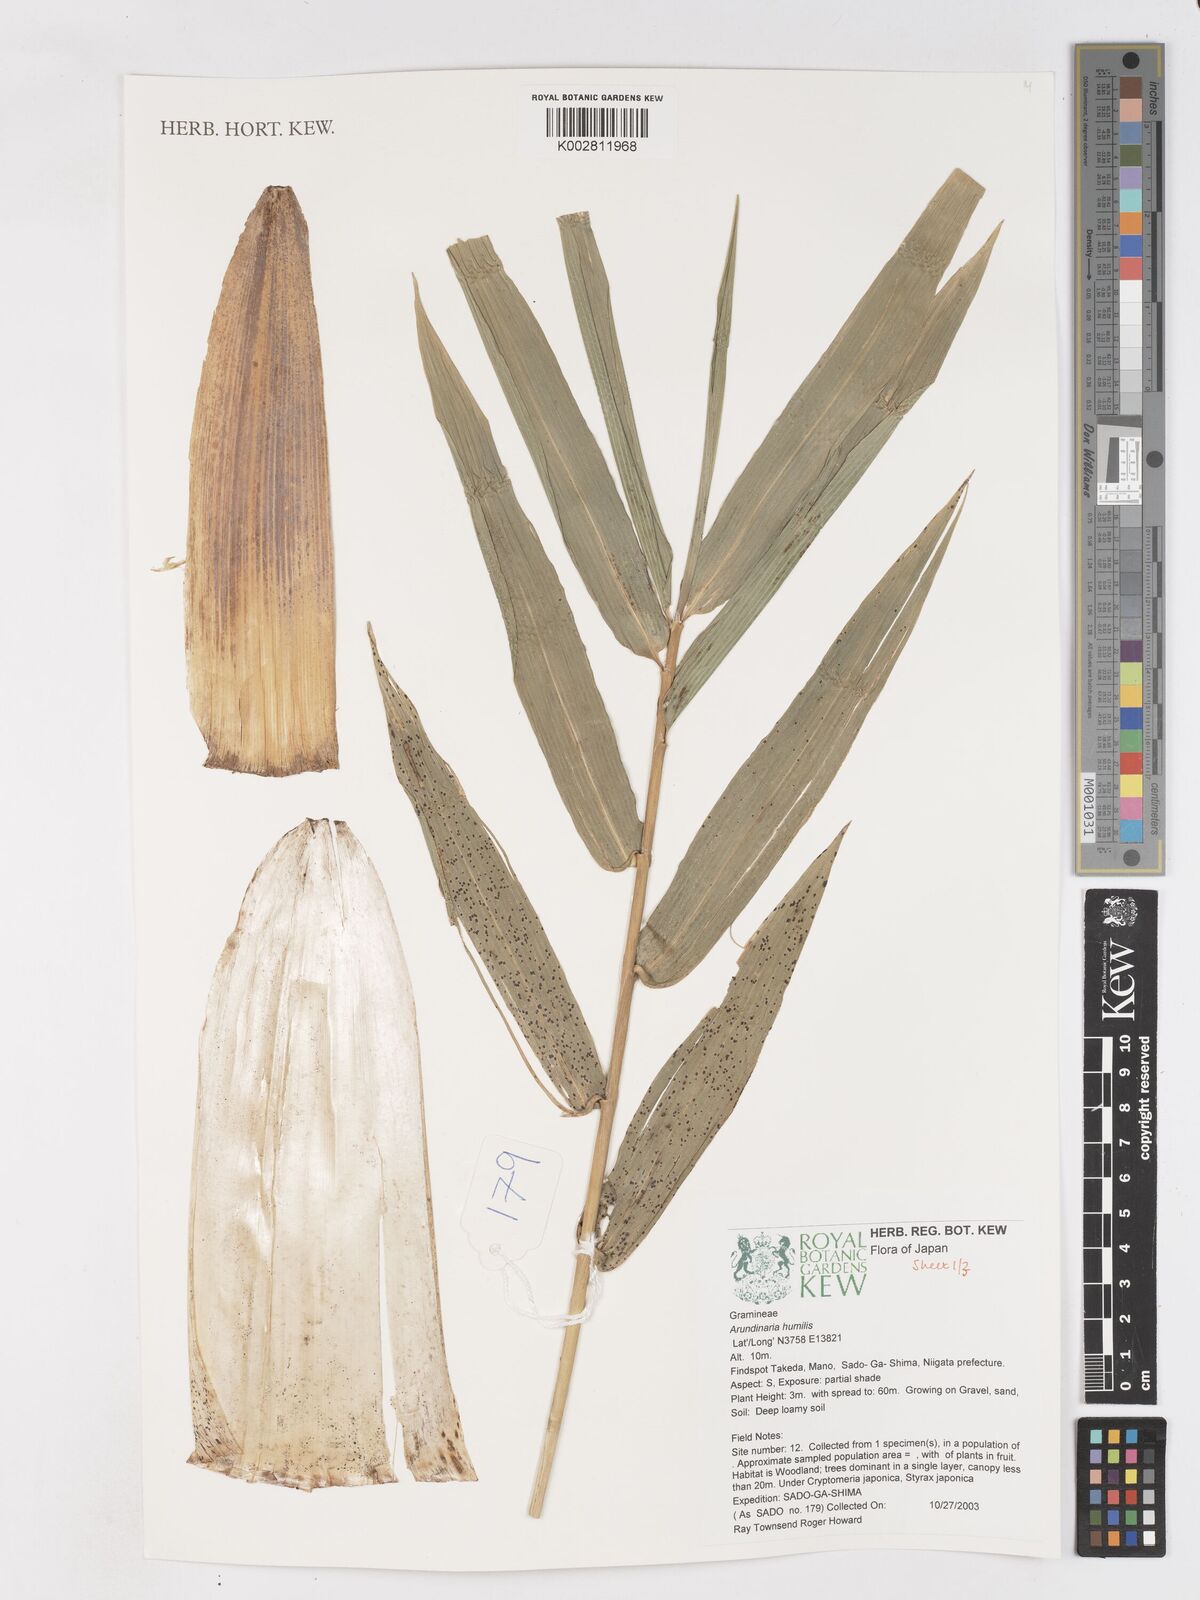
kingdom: Plantae
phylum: Tracheophyta
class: Liliopsida
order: Poales
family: Poaceae
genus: Pseudosasa
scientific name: Pseudosasa humilis
